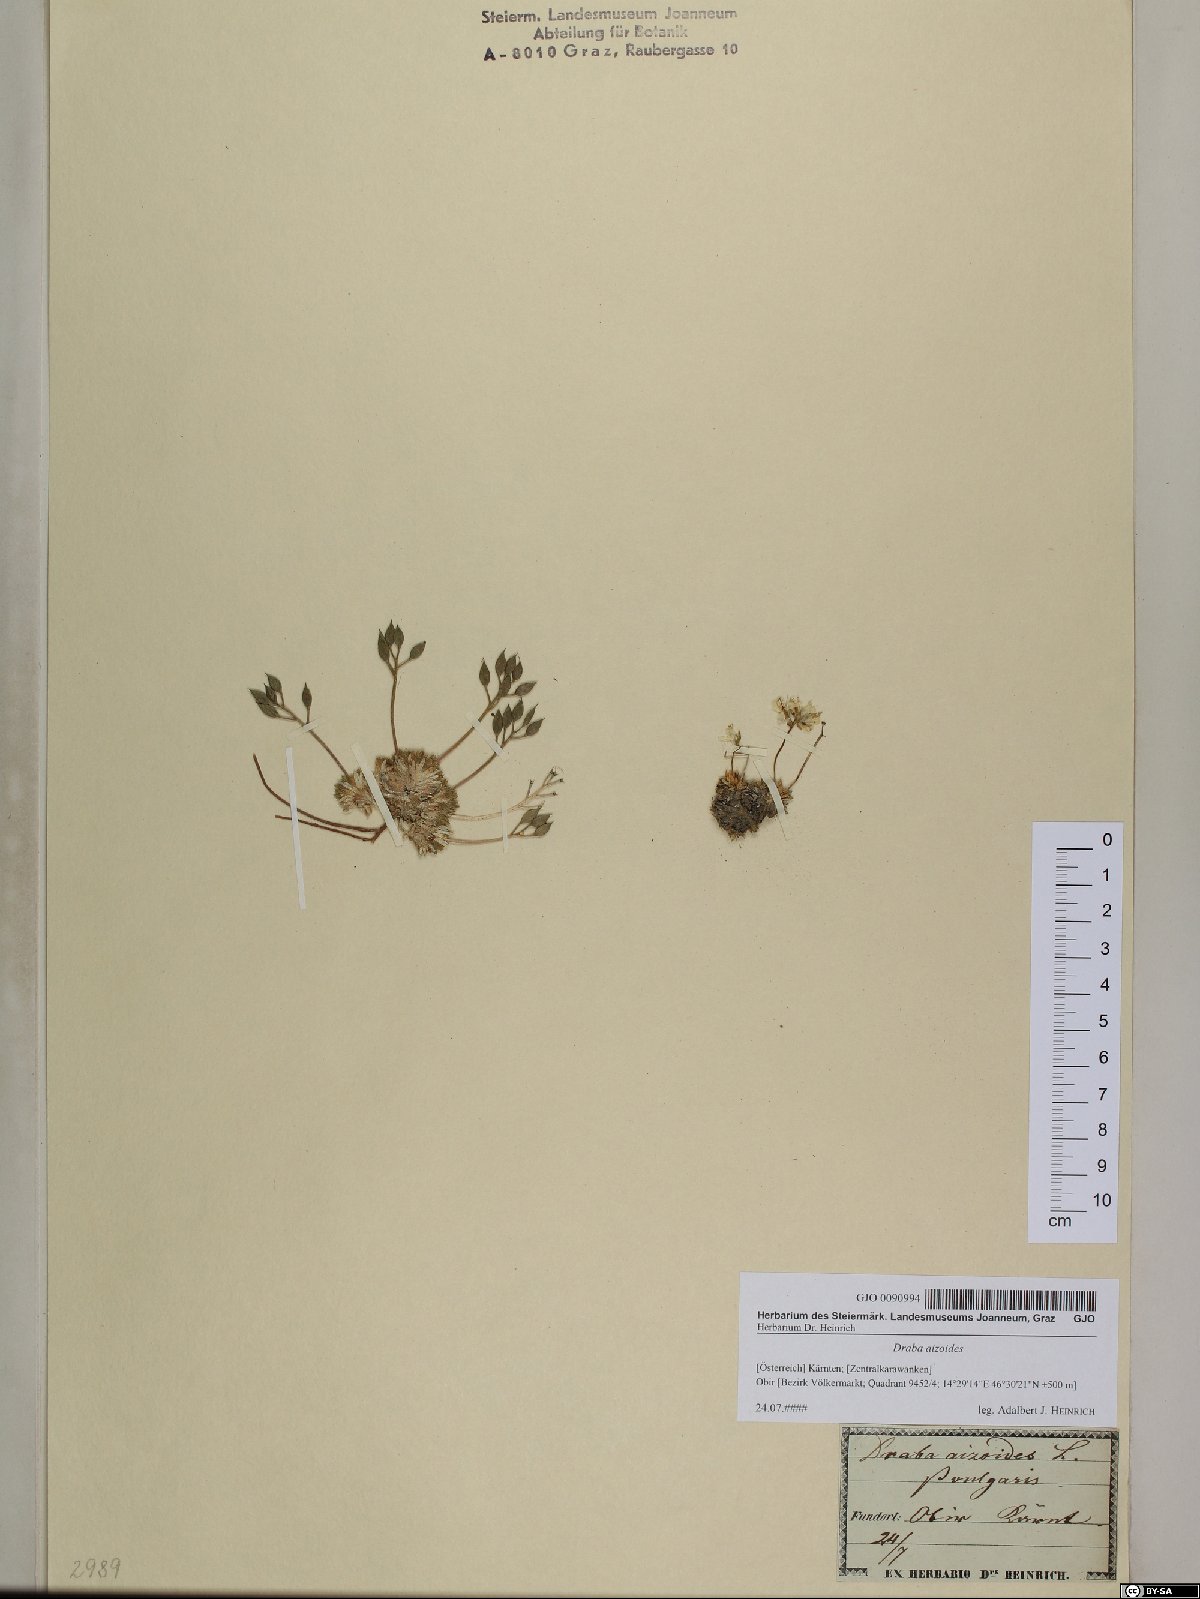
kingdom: Plantae
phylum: Tracheophyta
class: Magnoliopsida
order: Brassicales
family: Brassicaceae
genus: Draba
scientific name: Draba aizoides
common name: Yellow whitlowgrass
